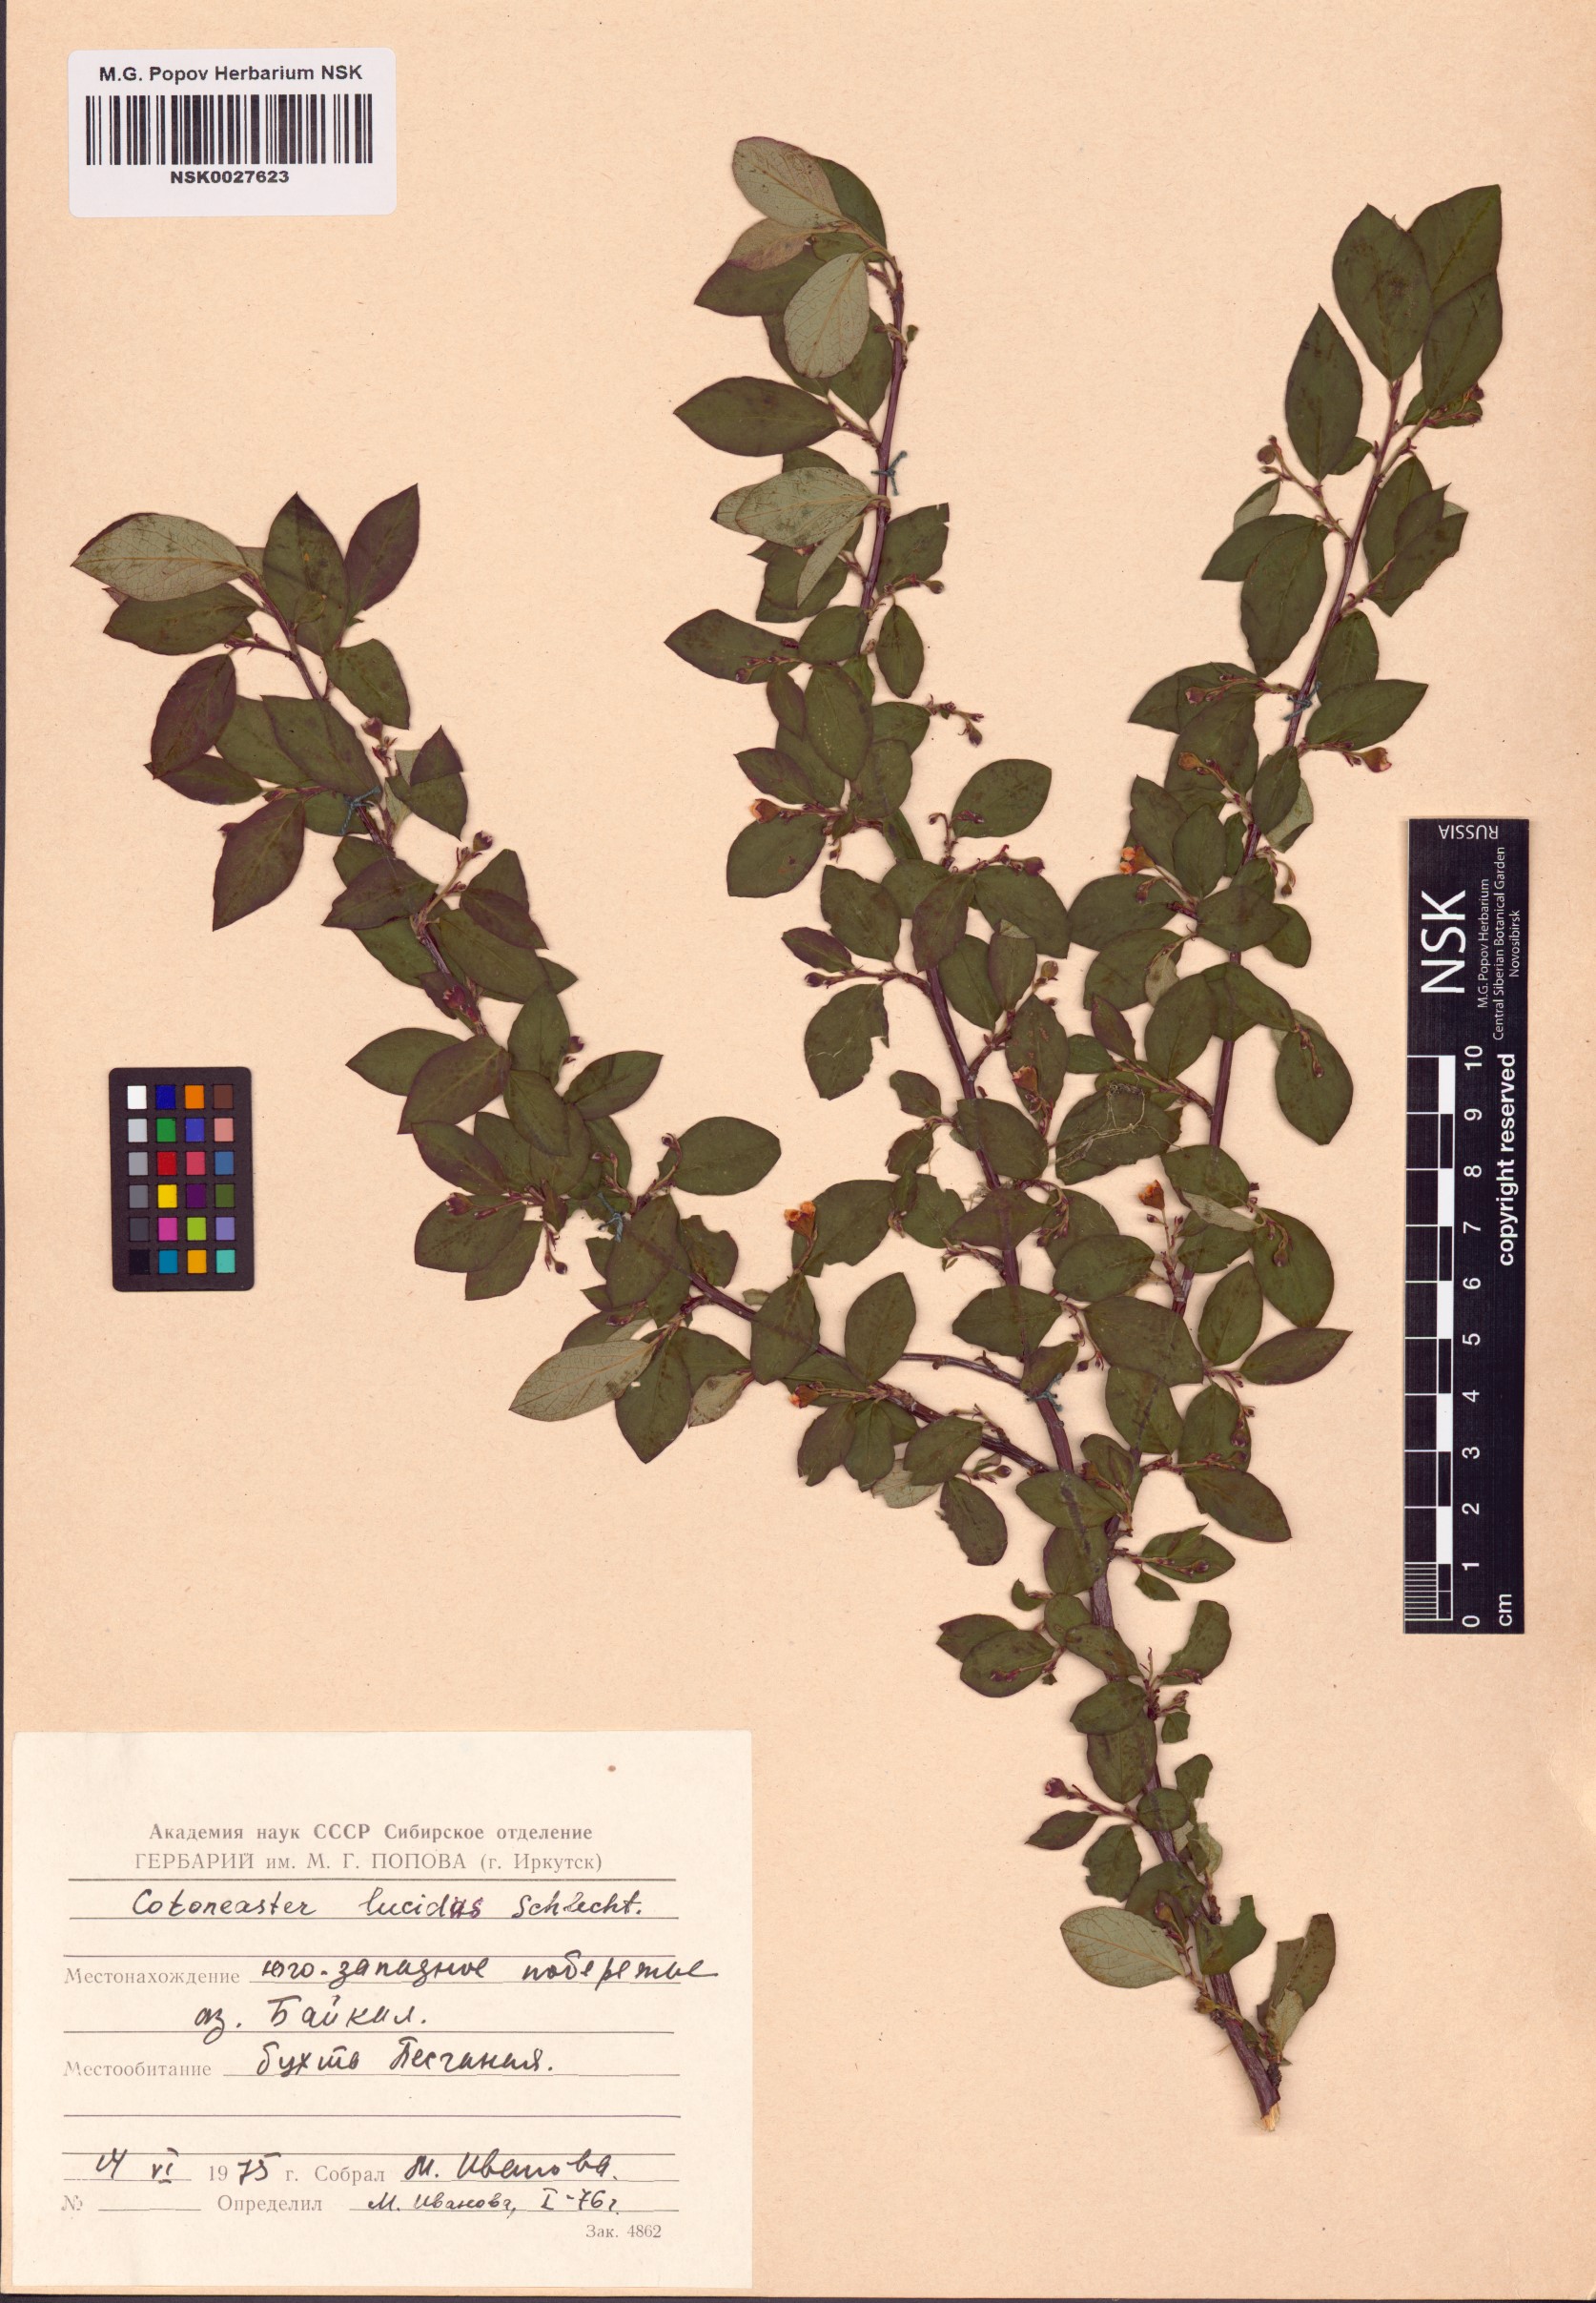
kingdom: Plantae
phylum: Tracheophyta
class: Magnoliopsida
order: Rosales
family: Rosaceae
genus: Cotoneaster
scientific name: Cotoneaster acutifolius
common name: Peking cotoneaster
